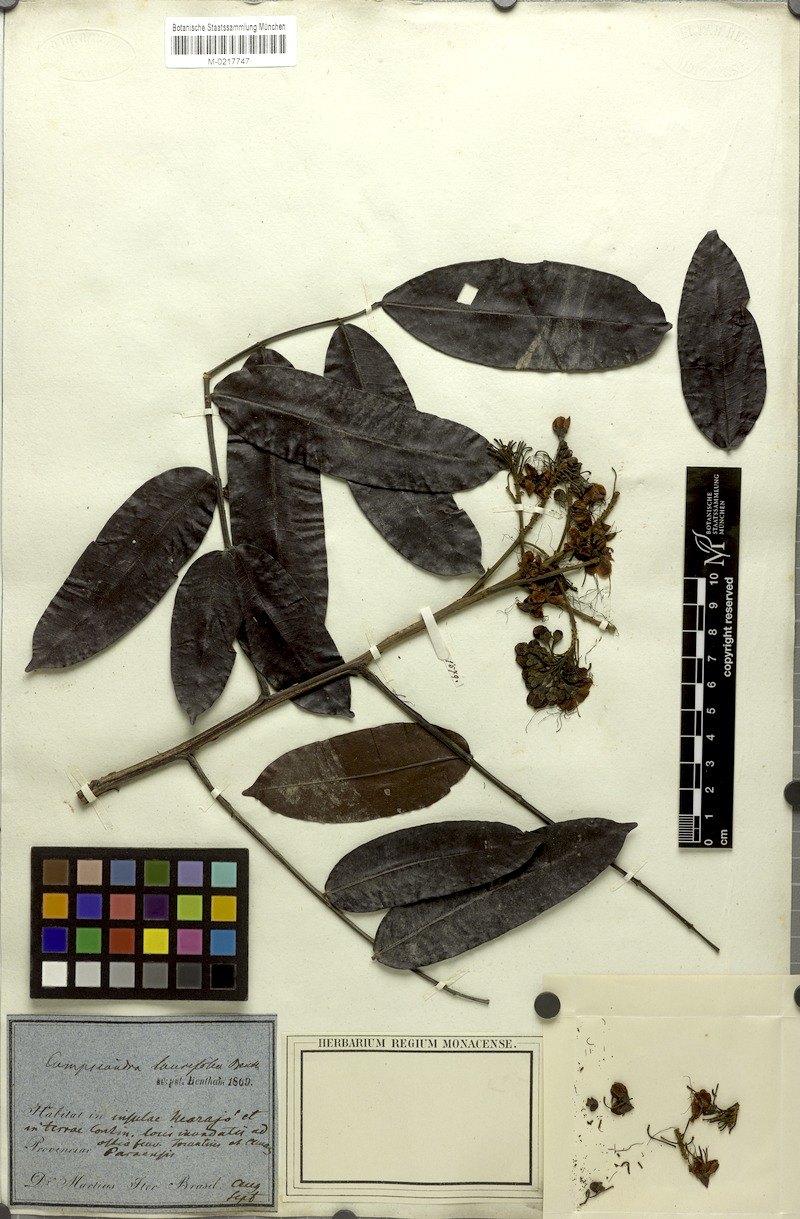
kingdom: Plantae
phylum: Tracheophyta
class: Magnoliopsida
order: Fabales
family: Fabaceae
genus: Campsiandra
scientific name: Campsiandra laurifolia
